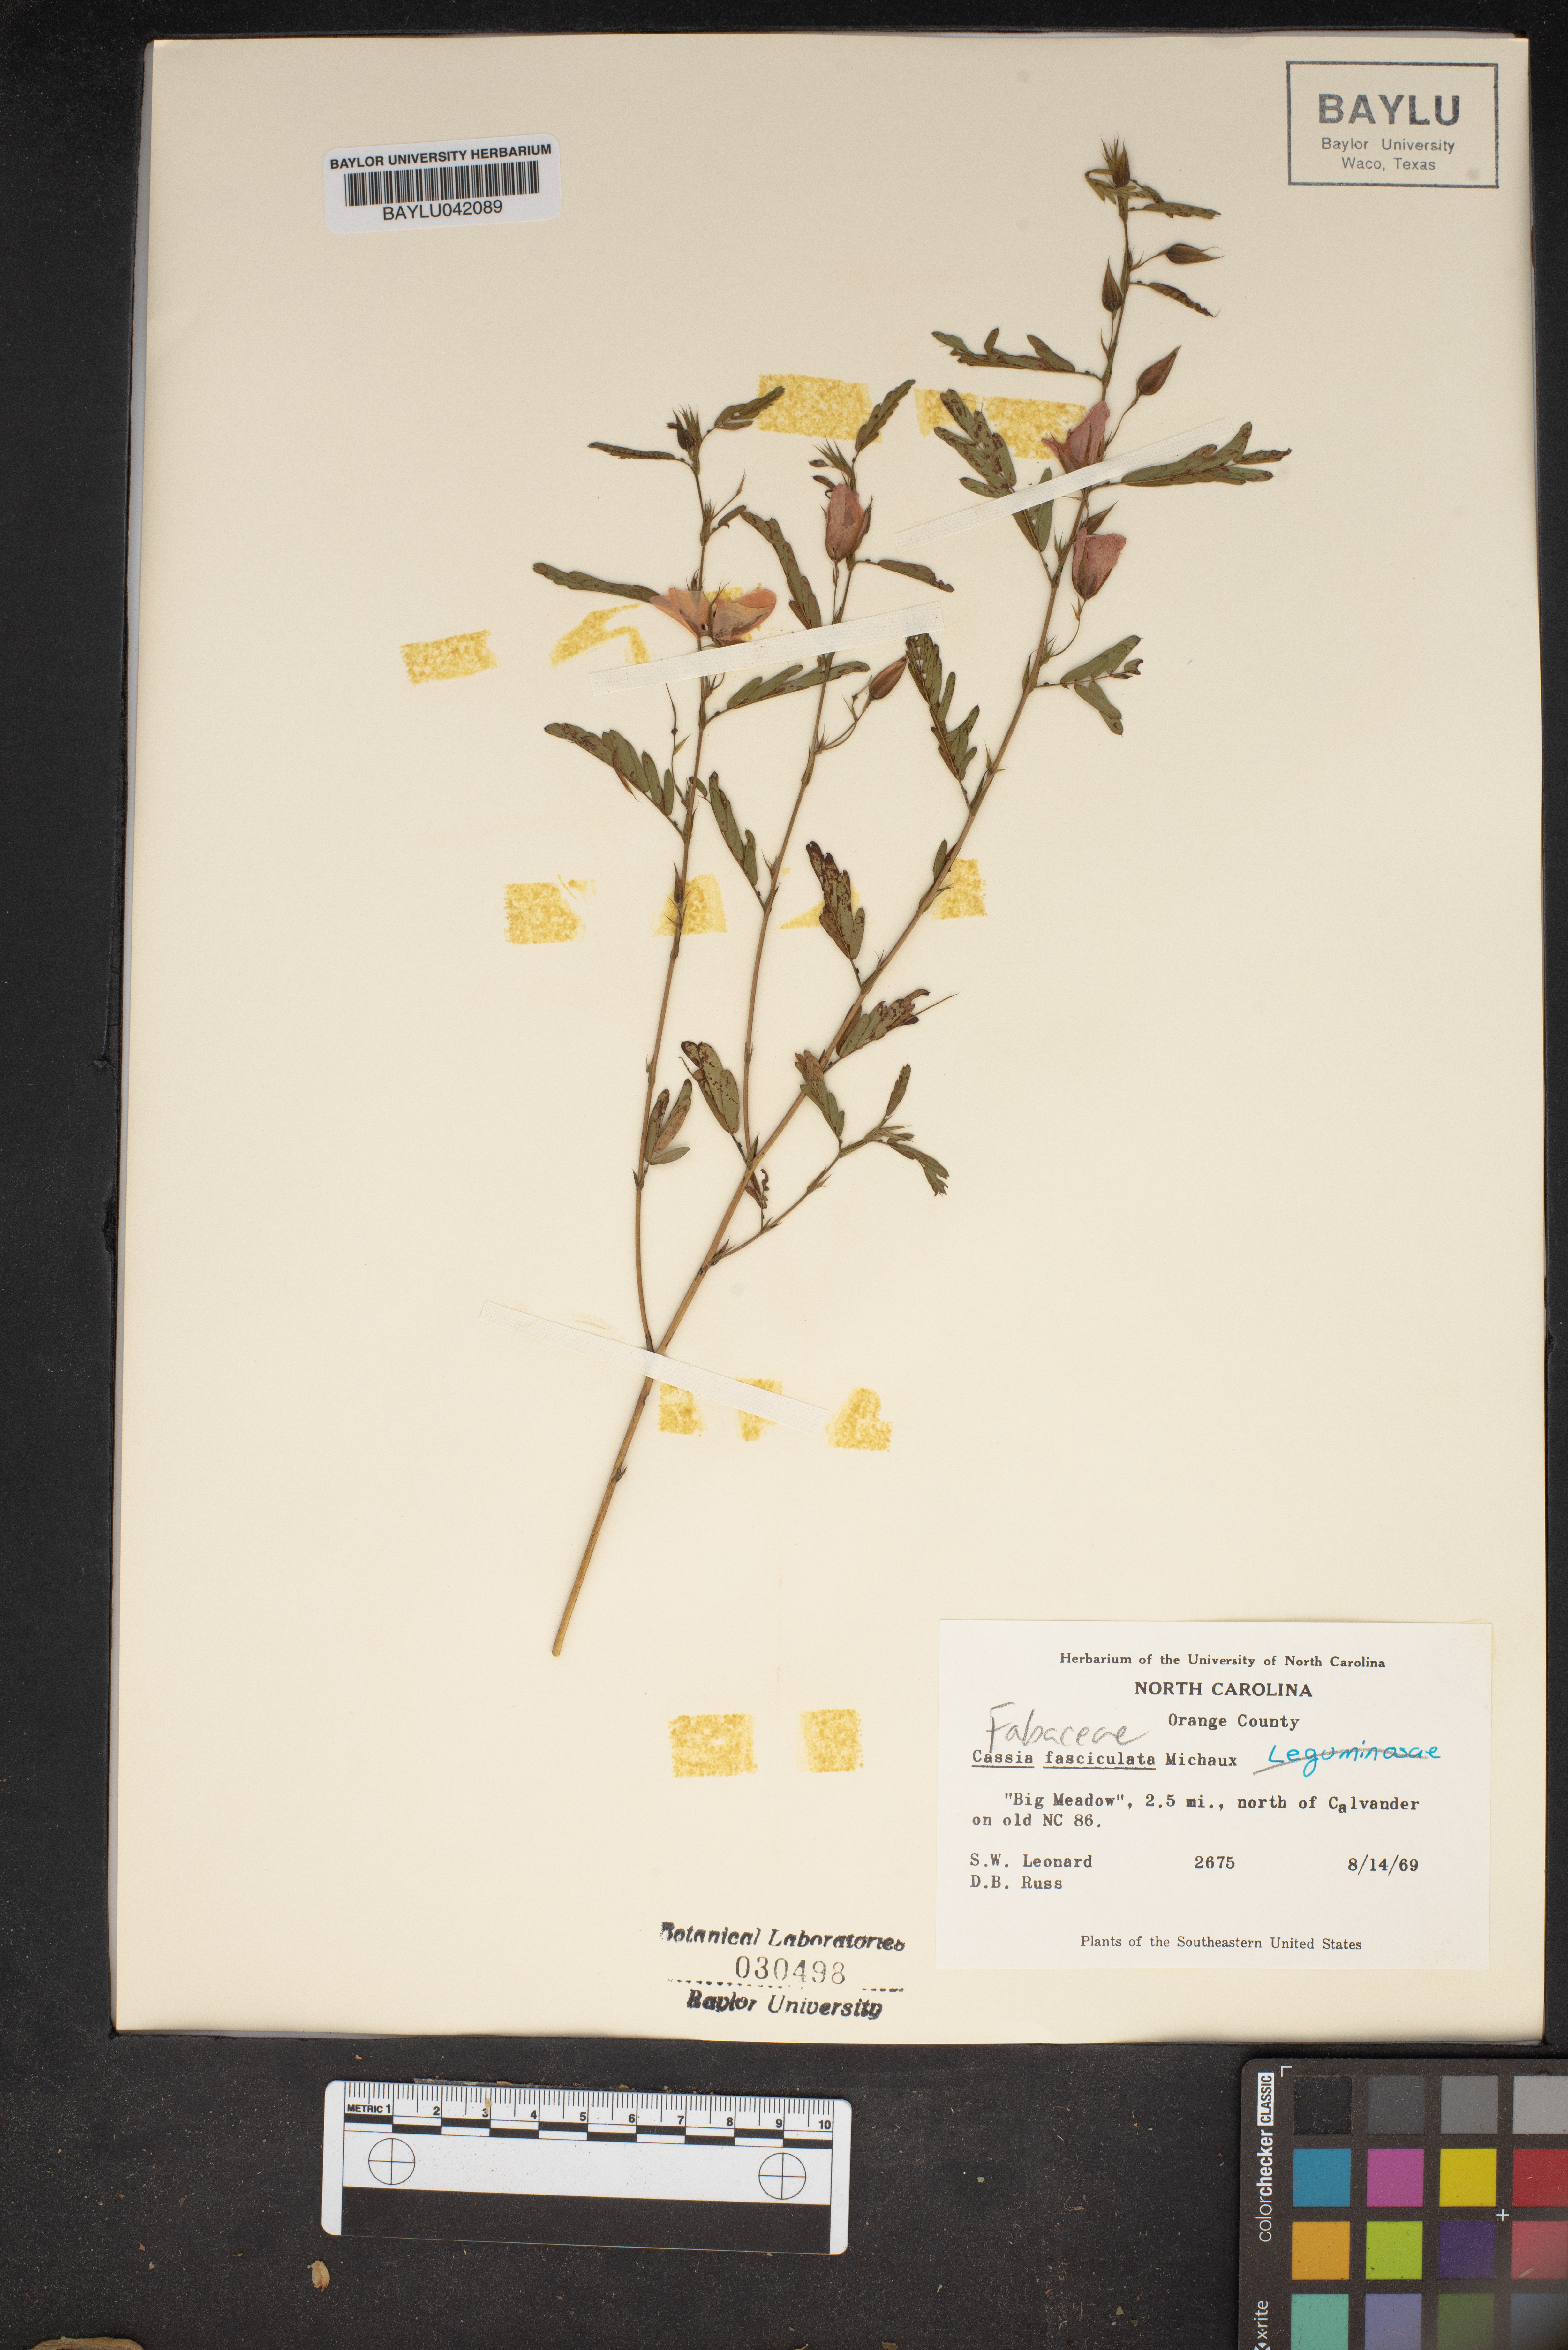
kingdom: Plantae
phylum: Tracheophyta
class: Magnoliopsida
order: Fabales
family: Fabaceae
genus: Chamaecrista
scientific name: Chamaecrista fasciculata
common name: Golden cassia
